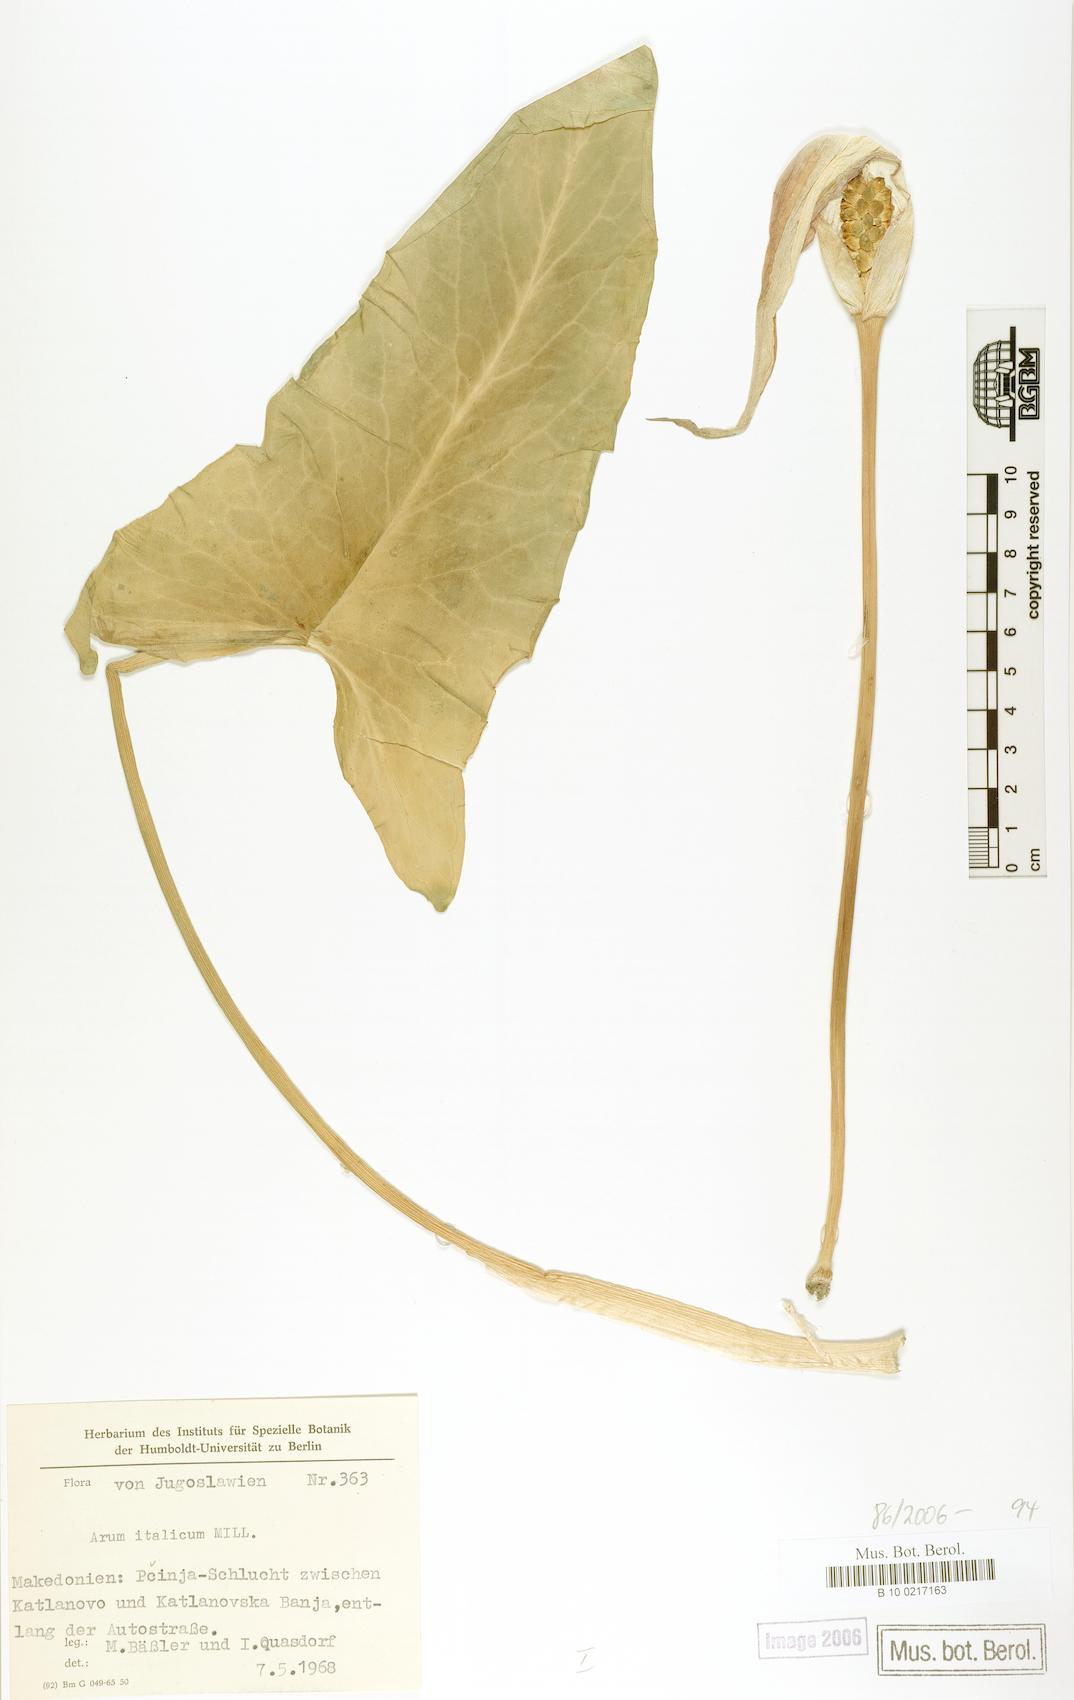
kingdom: Plantae
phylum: Tracheophyta
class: Liliopsida
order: Alismatales
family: Araceae
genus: Arum
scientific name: Arum italicum
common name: Italian lords-and-ladies
